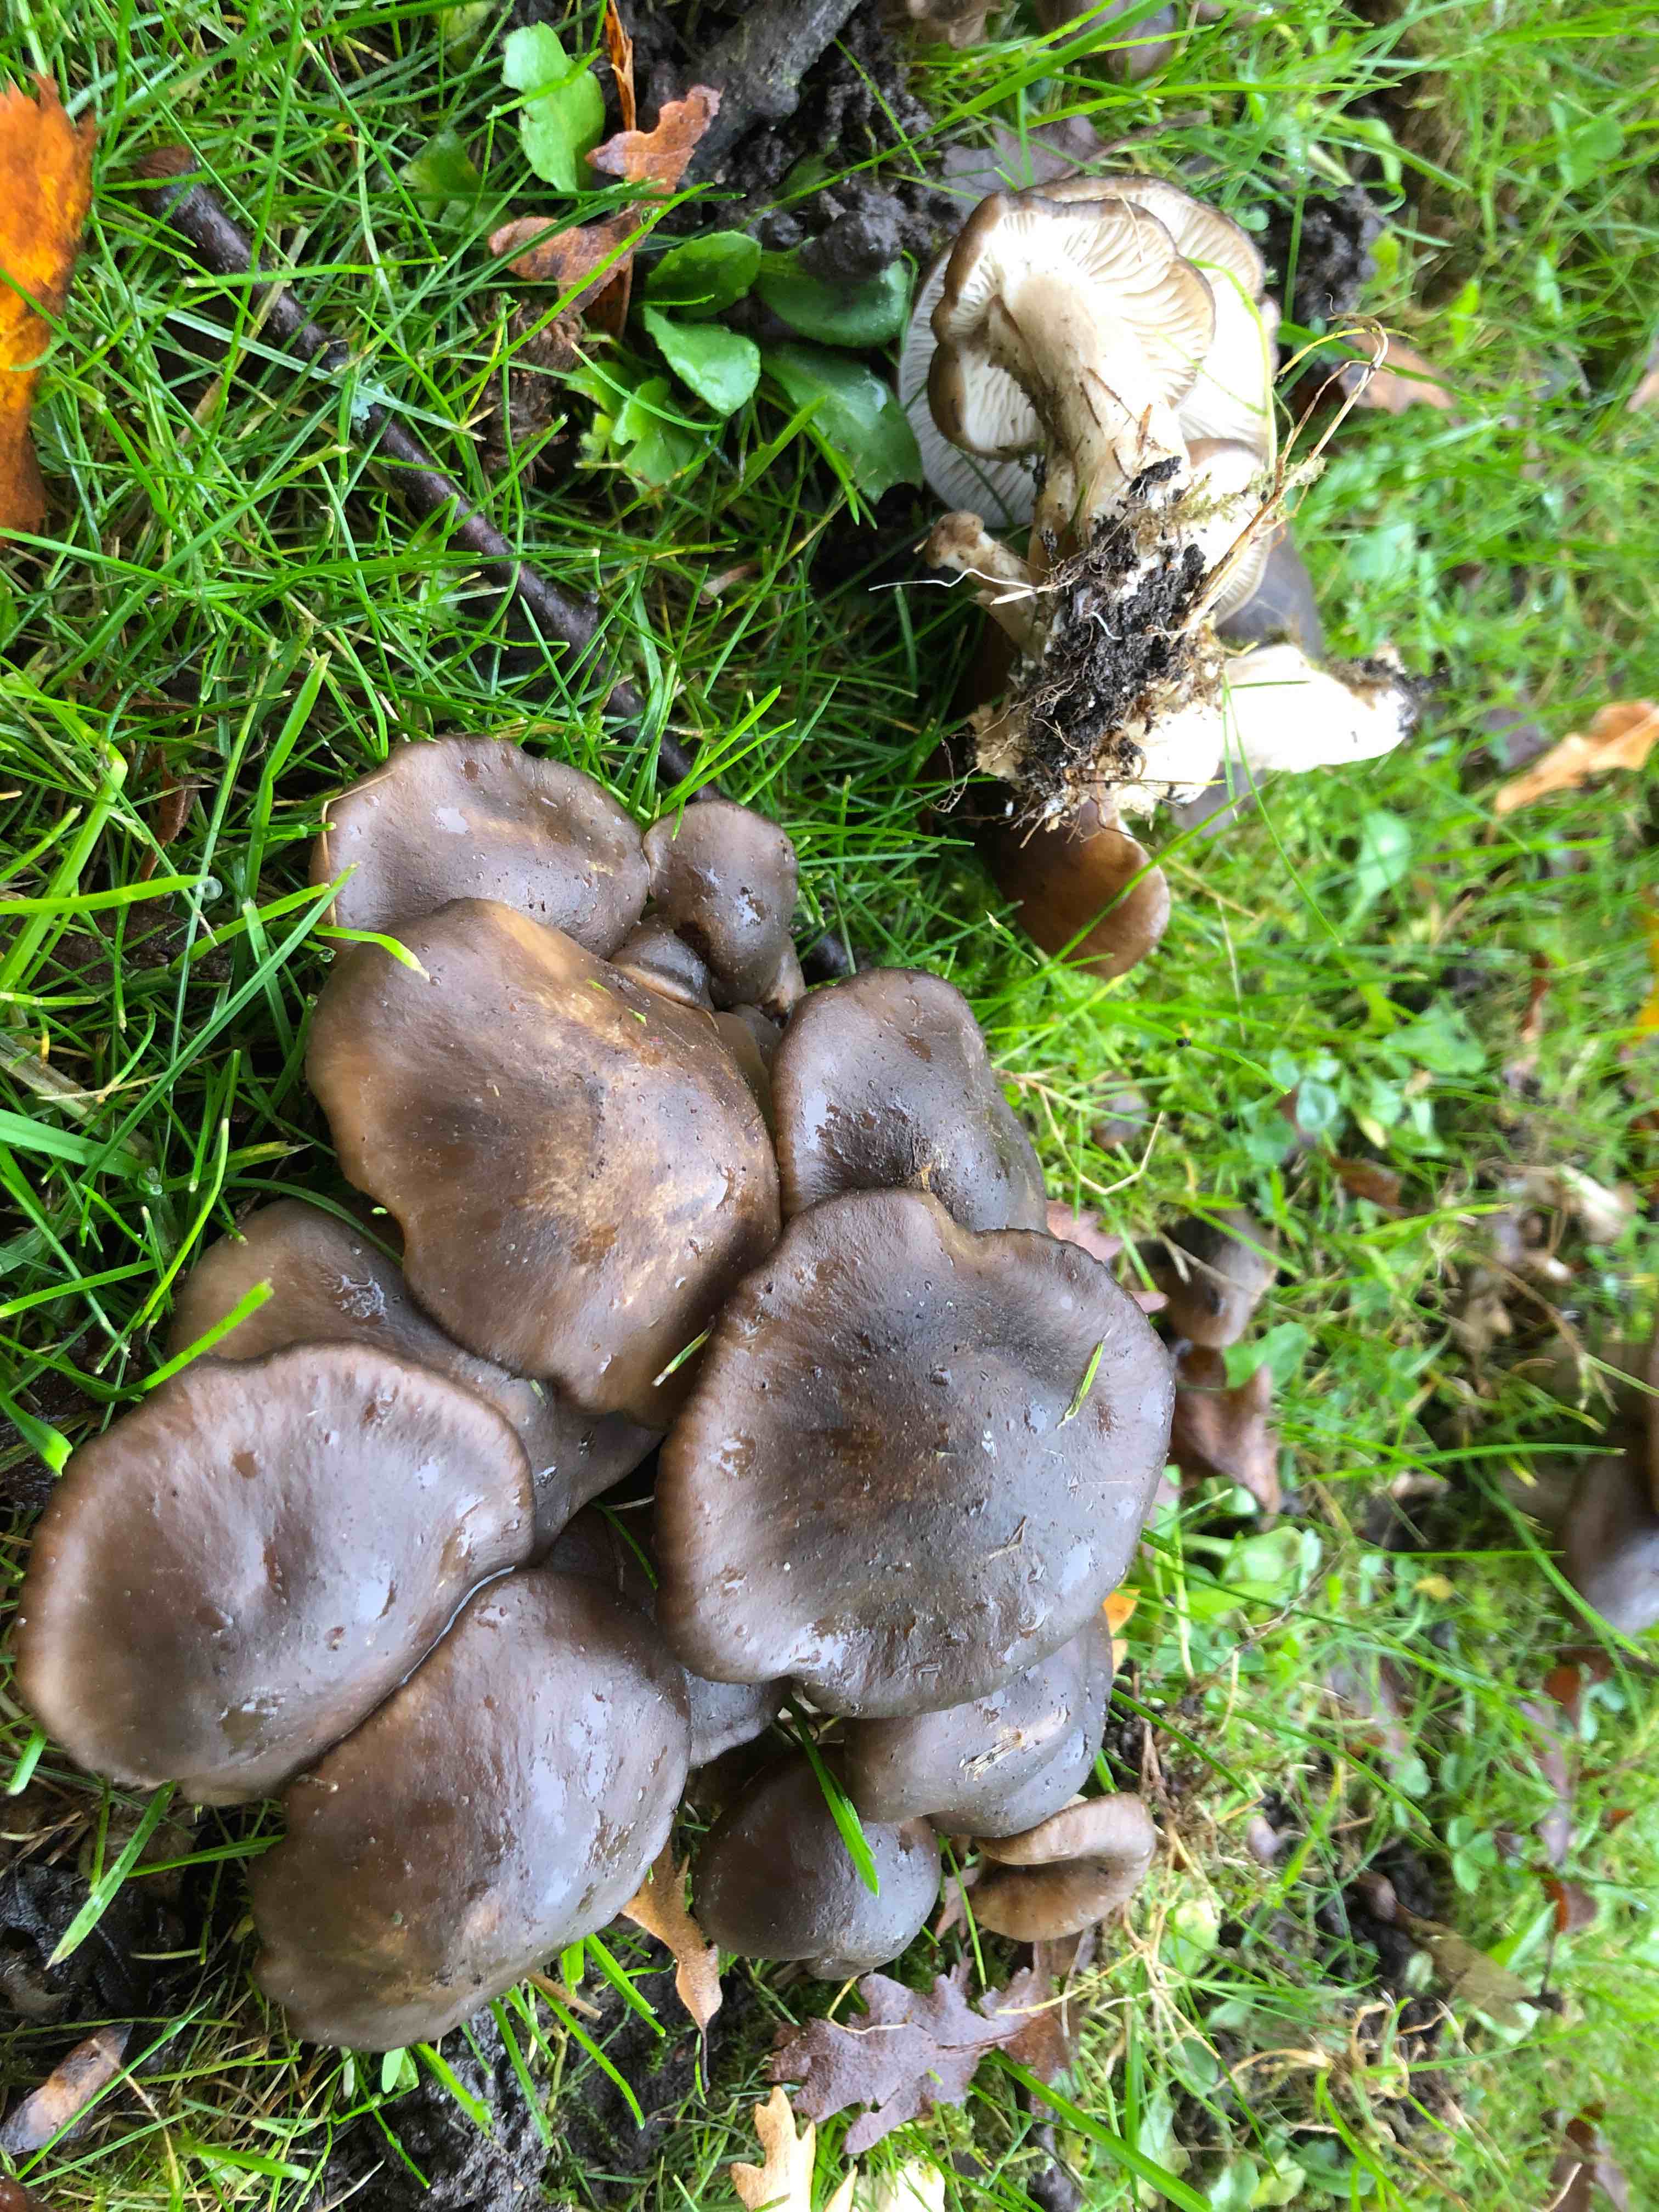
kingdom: Fungi
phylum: Basidiomycota
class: Agaricomycetes
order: Agaricales
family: Lyophyllaceae
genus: Lyophyllum
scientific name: Lyophyllum decastes
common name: røggrå gråblad
